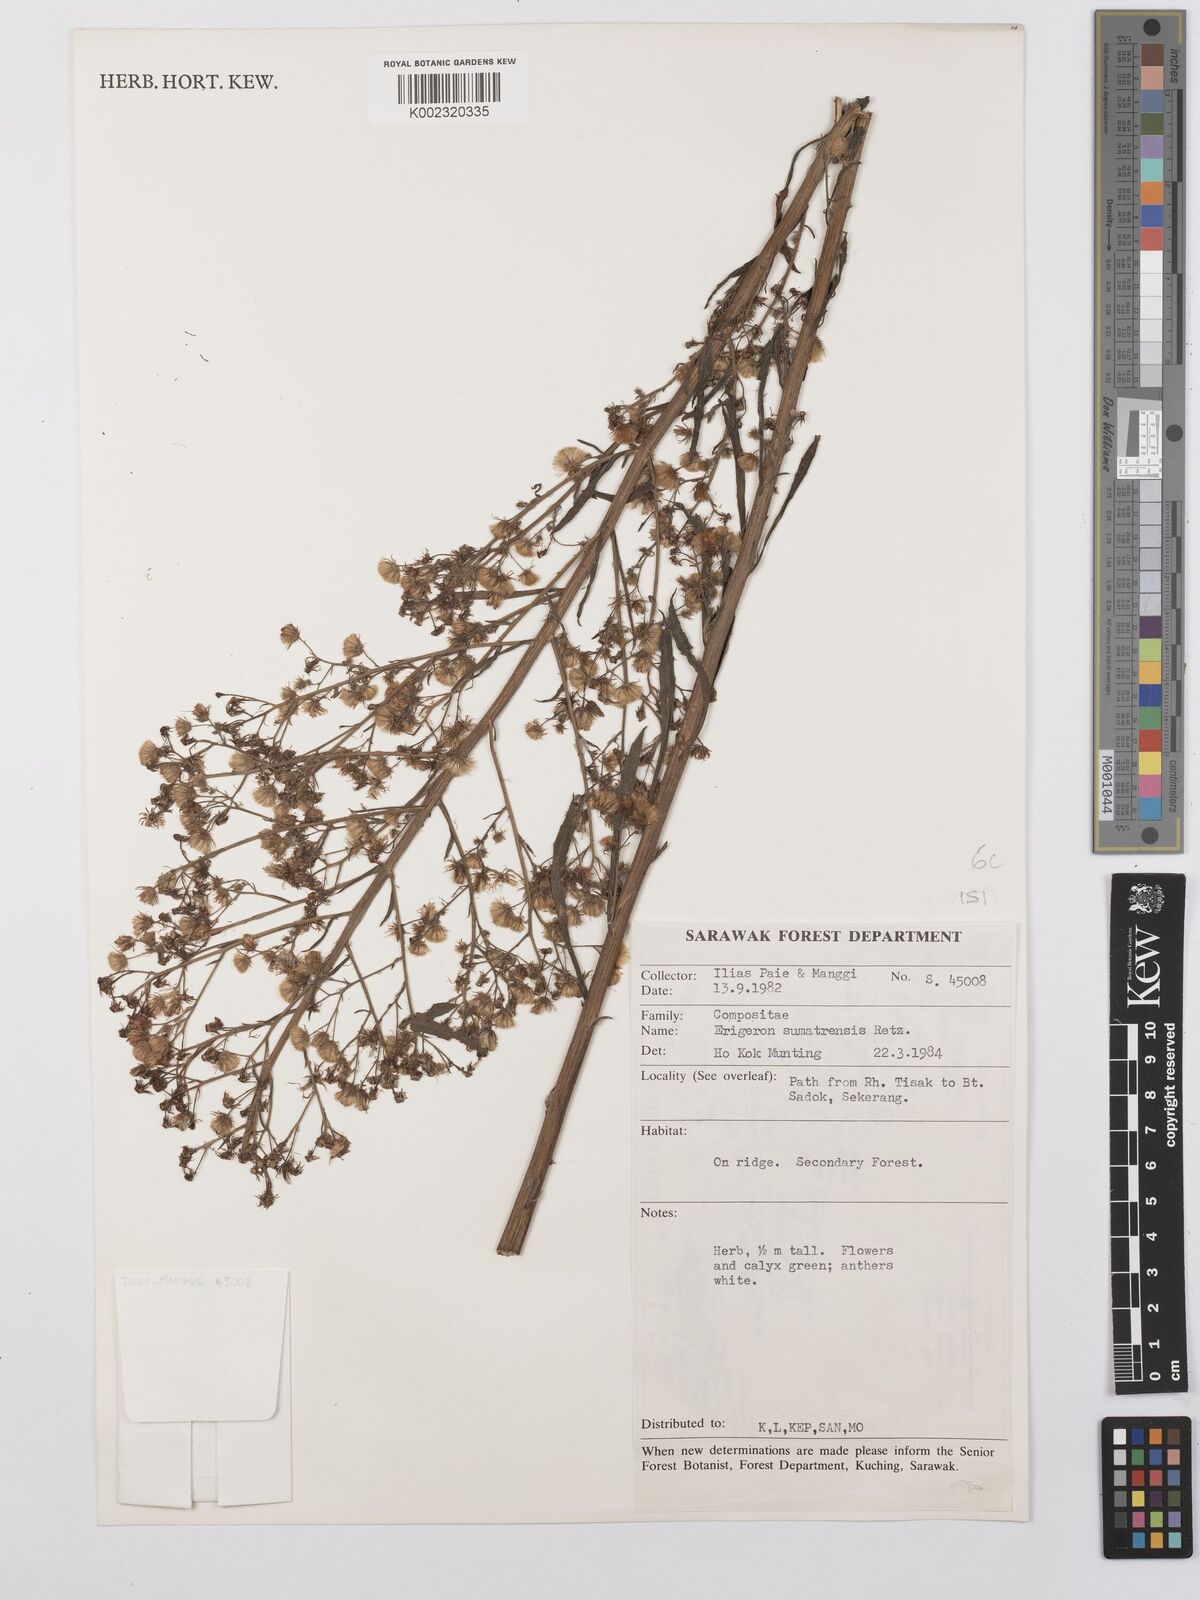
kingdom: Plantae
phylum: Tracheophyta
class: Magnoliopsida
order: Asterales
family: Asteraceae
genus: Erigeron
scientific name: Erigeron sumatrensis
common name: Daisy
